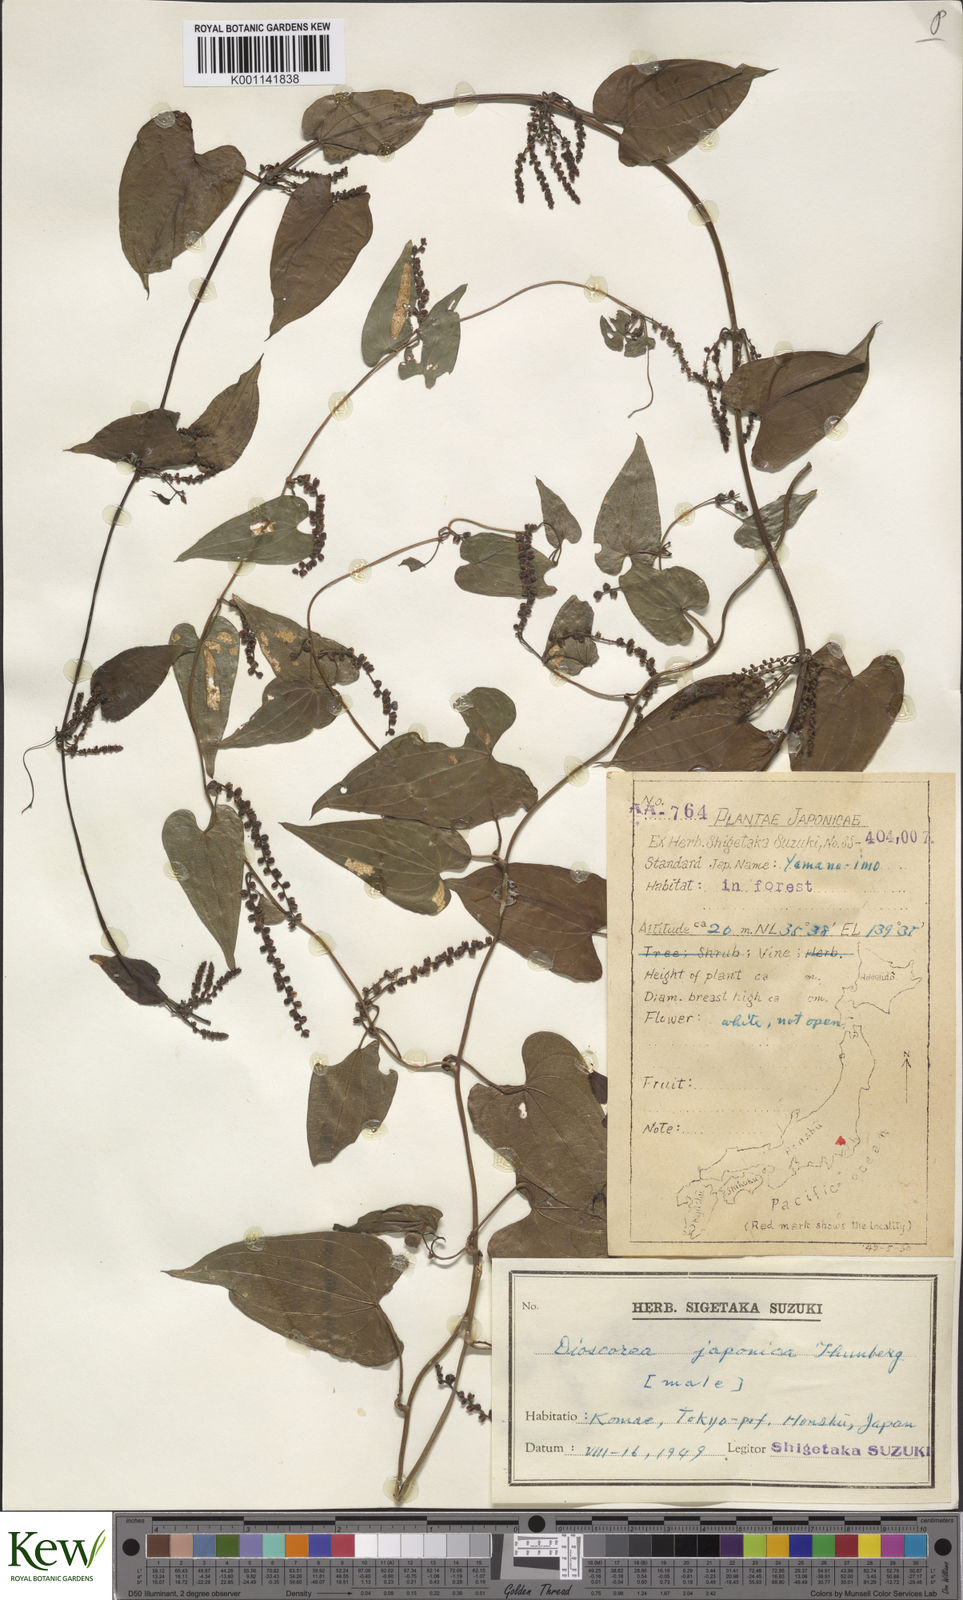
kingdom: Plantae
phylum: Tracheophyta
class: Liliopsida
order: Dioscoreales
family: Dioscoreaceae
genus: Dioscorea
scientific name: Dioscorea japonica
